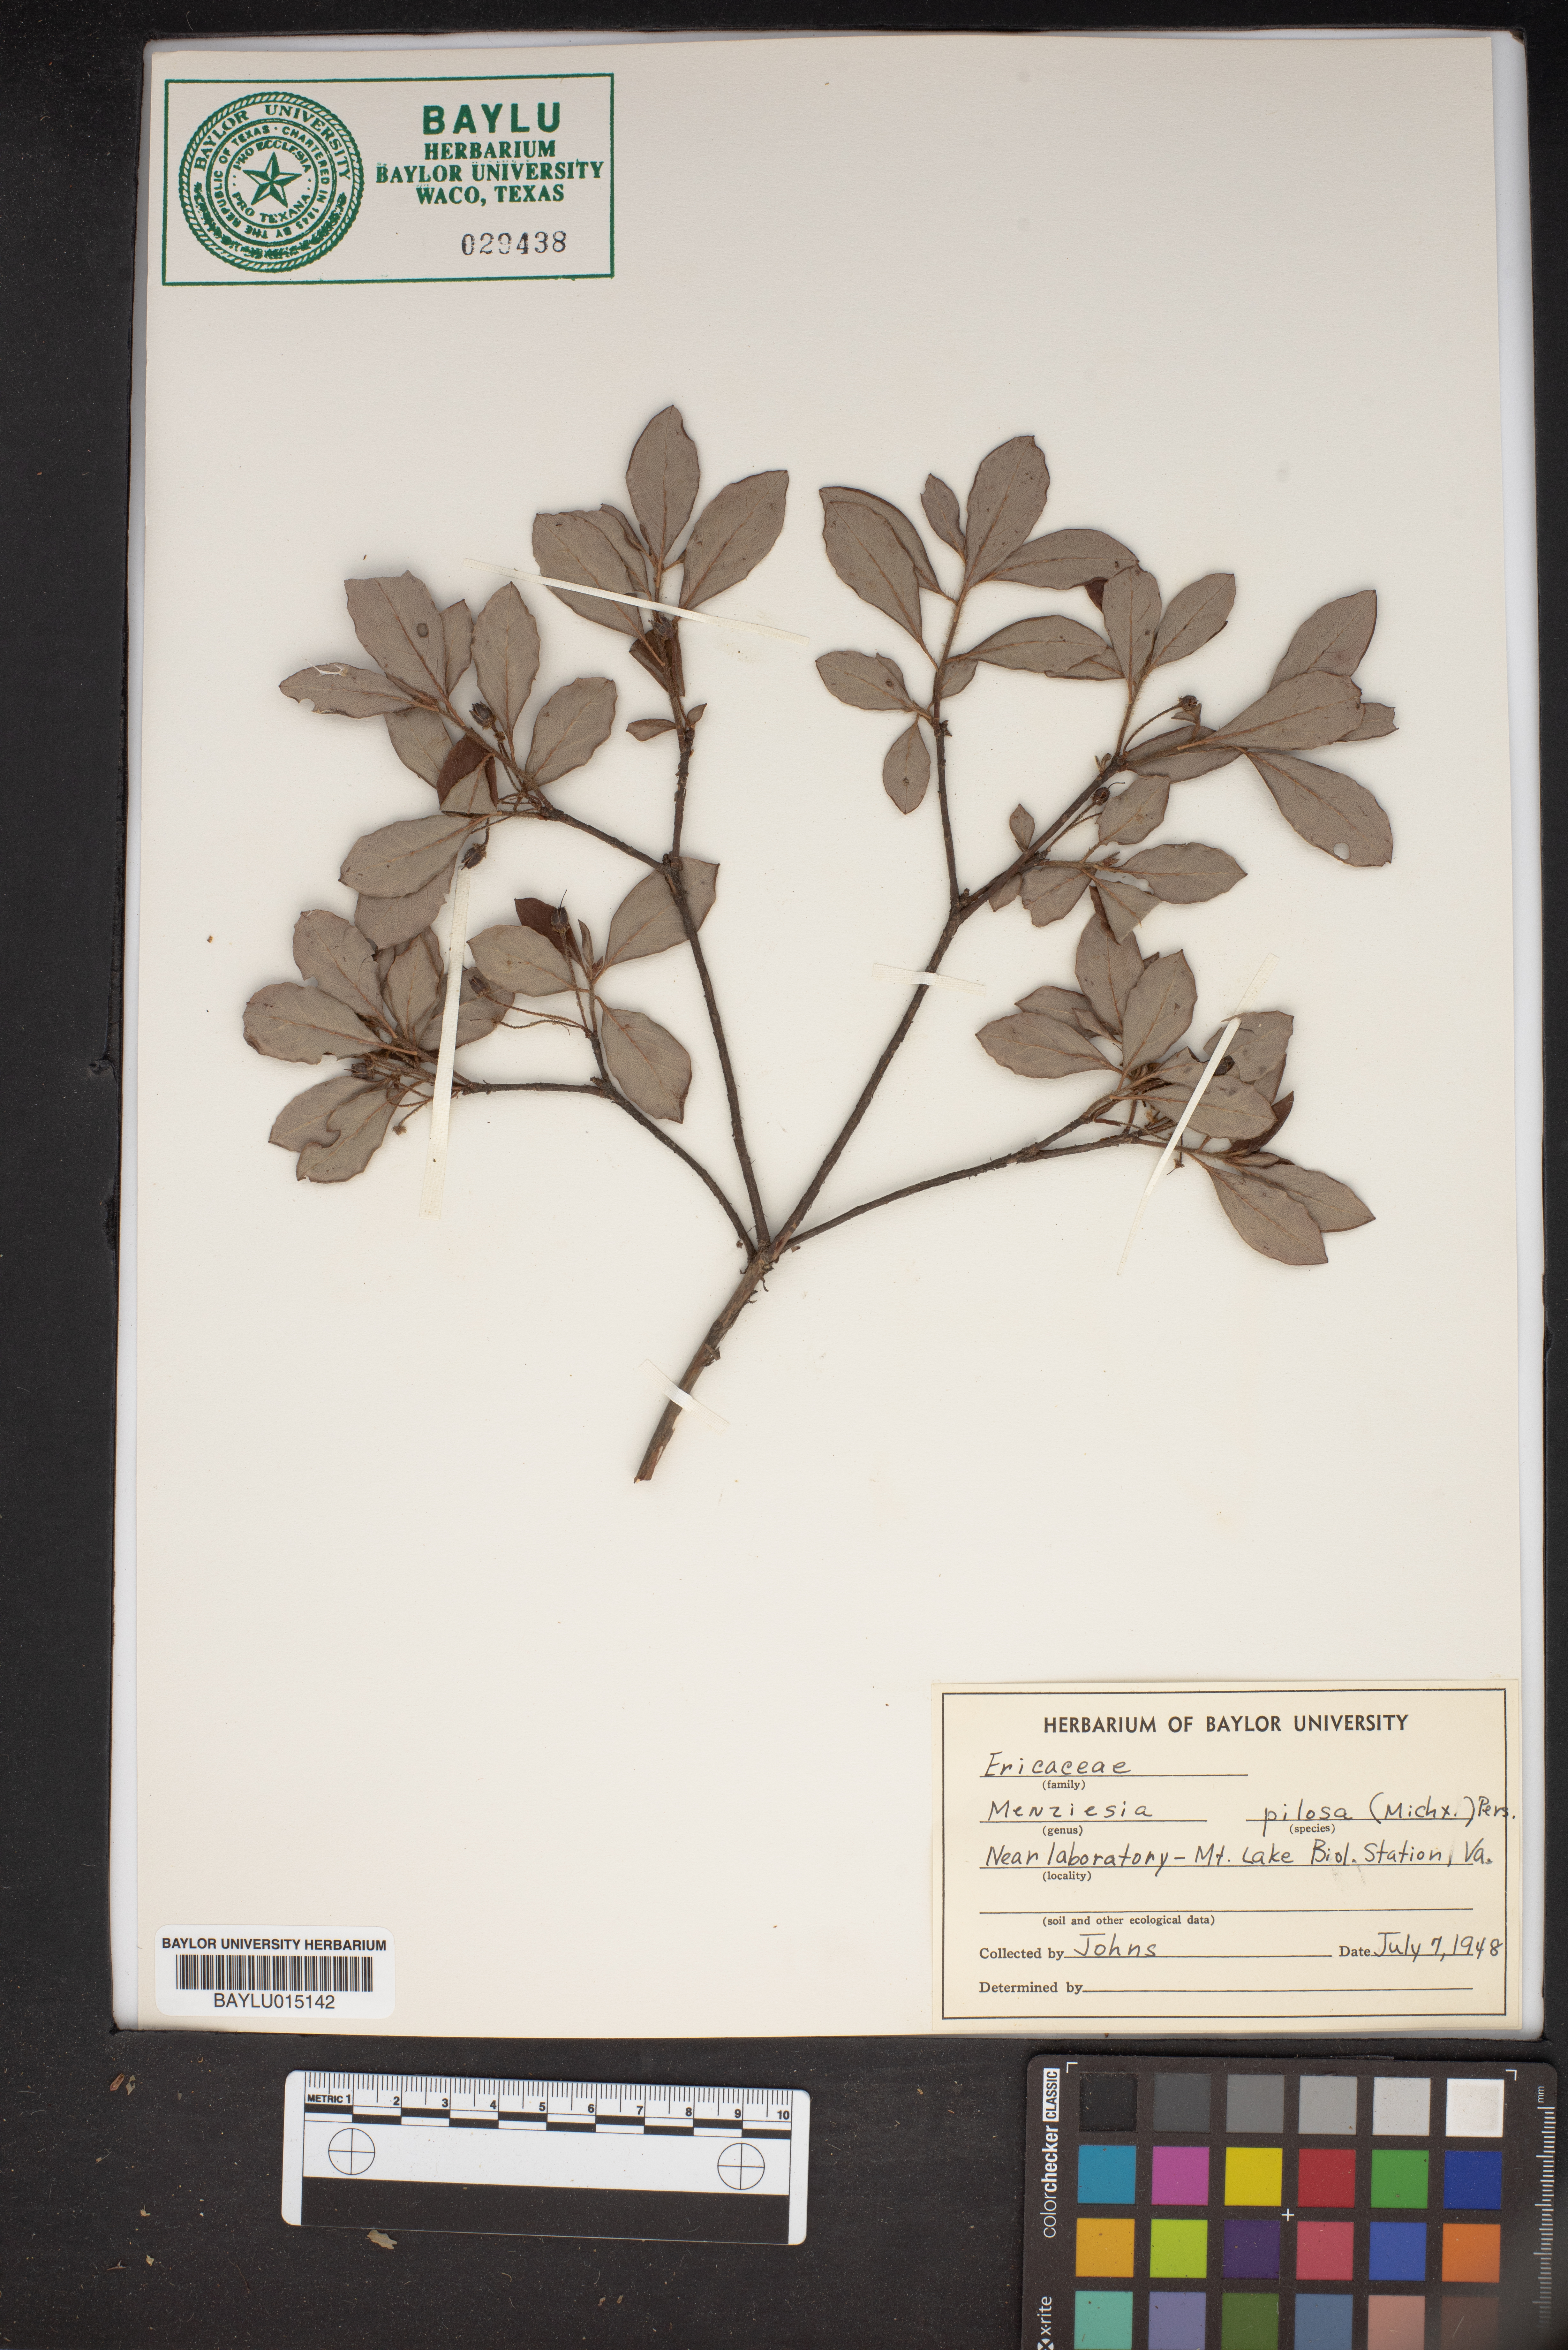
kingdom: Plantae
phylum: Tracheophyta
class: Magnoliopsida
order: Ericales
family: Ericaceae
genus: Rhododendron
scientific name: Rhododendron pilosum
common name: Hairy minniebush
